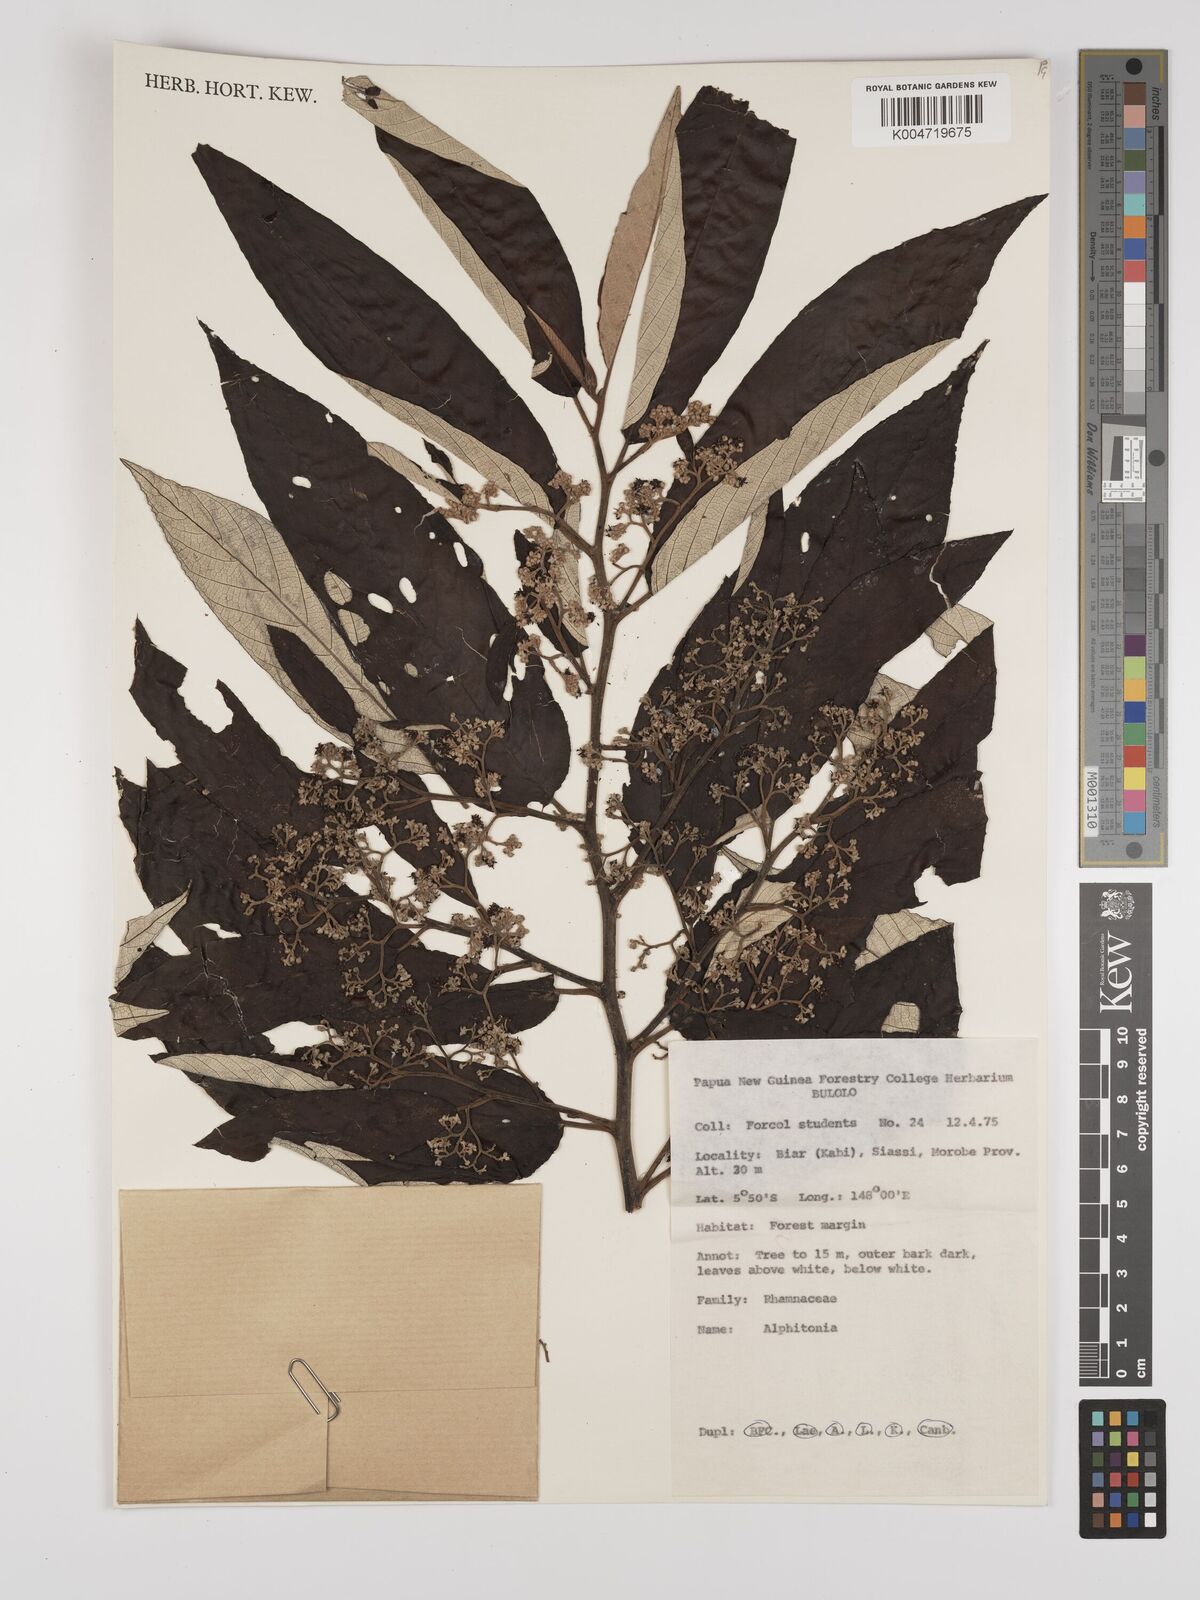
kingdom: Plantae
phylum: Tracheophyta
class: Magnoliopsida
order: Rosales
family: Rhamnaceae
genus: Alphitonia
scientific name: Alphitonia
